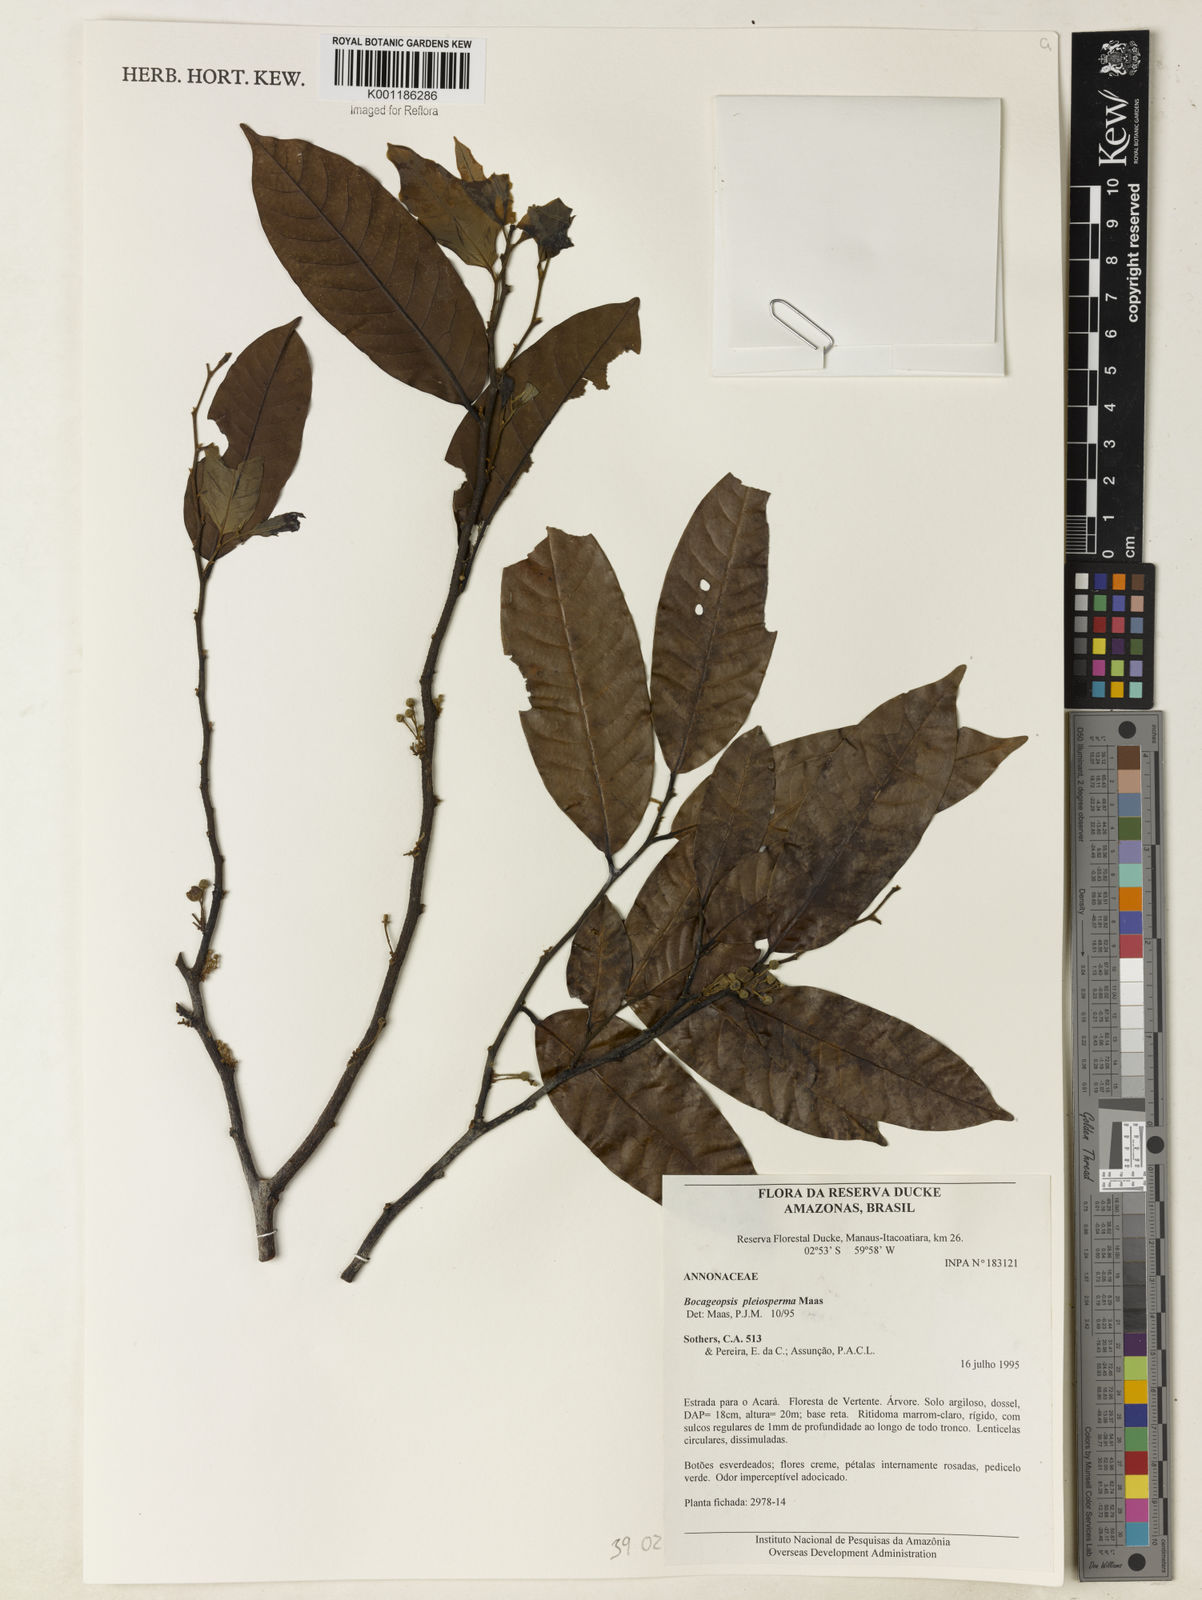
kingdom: Plantae
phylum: Tracheophyta
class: Magnoliopsida
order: Magnoliales
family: Annonaceae
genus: Bocageopsis
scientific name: Bocageopsis pleiosperma
